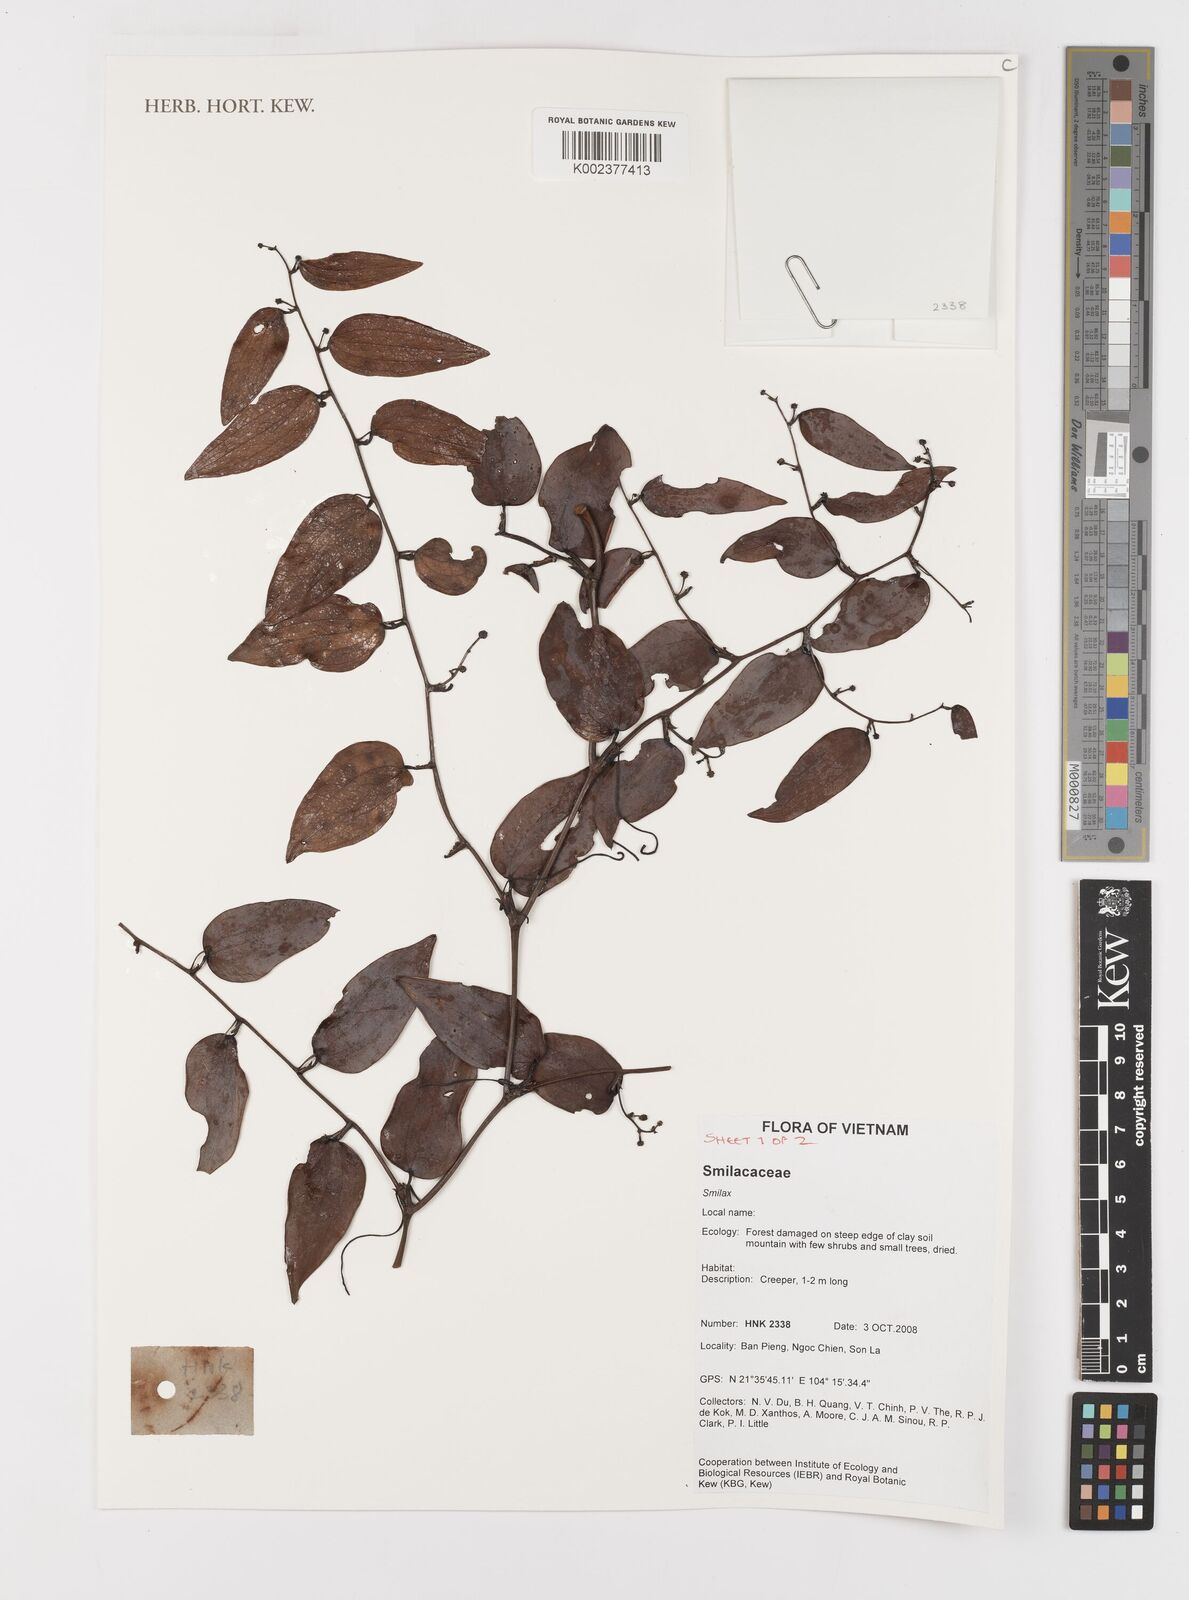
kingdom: Plantae
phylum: Tracheophyta
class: Liliopsida
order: Liliales
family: Smilacaceae
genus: Smilax
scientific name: Smilax
